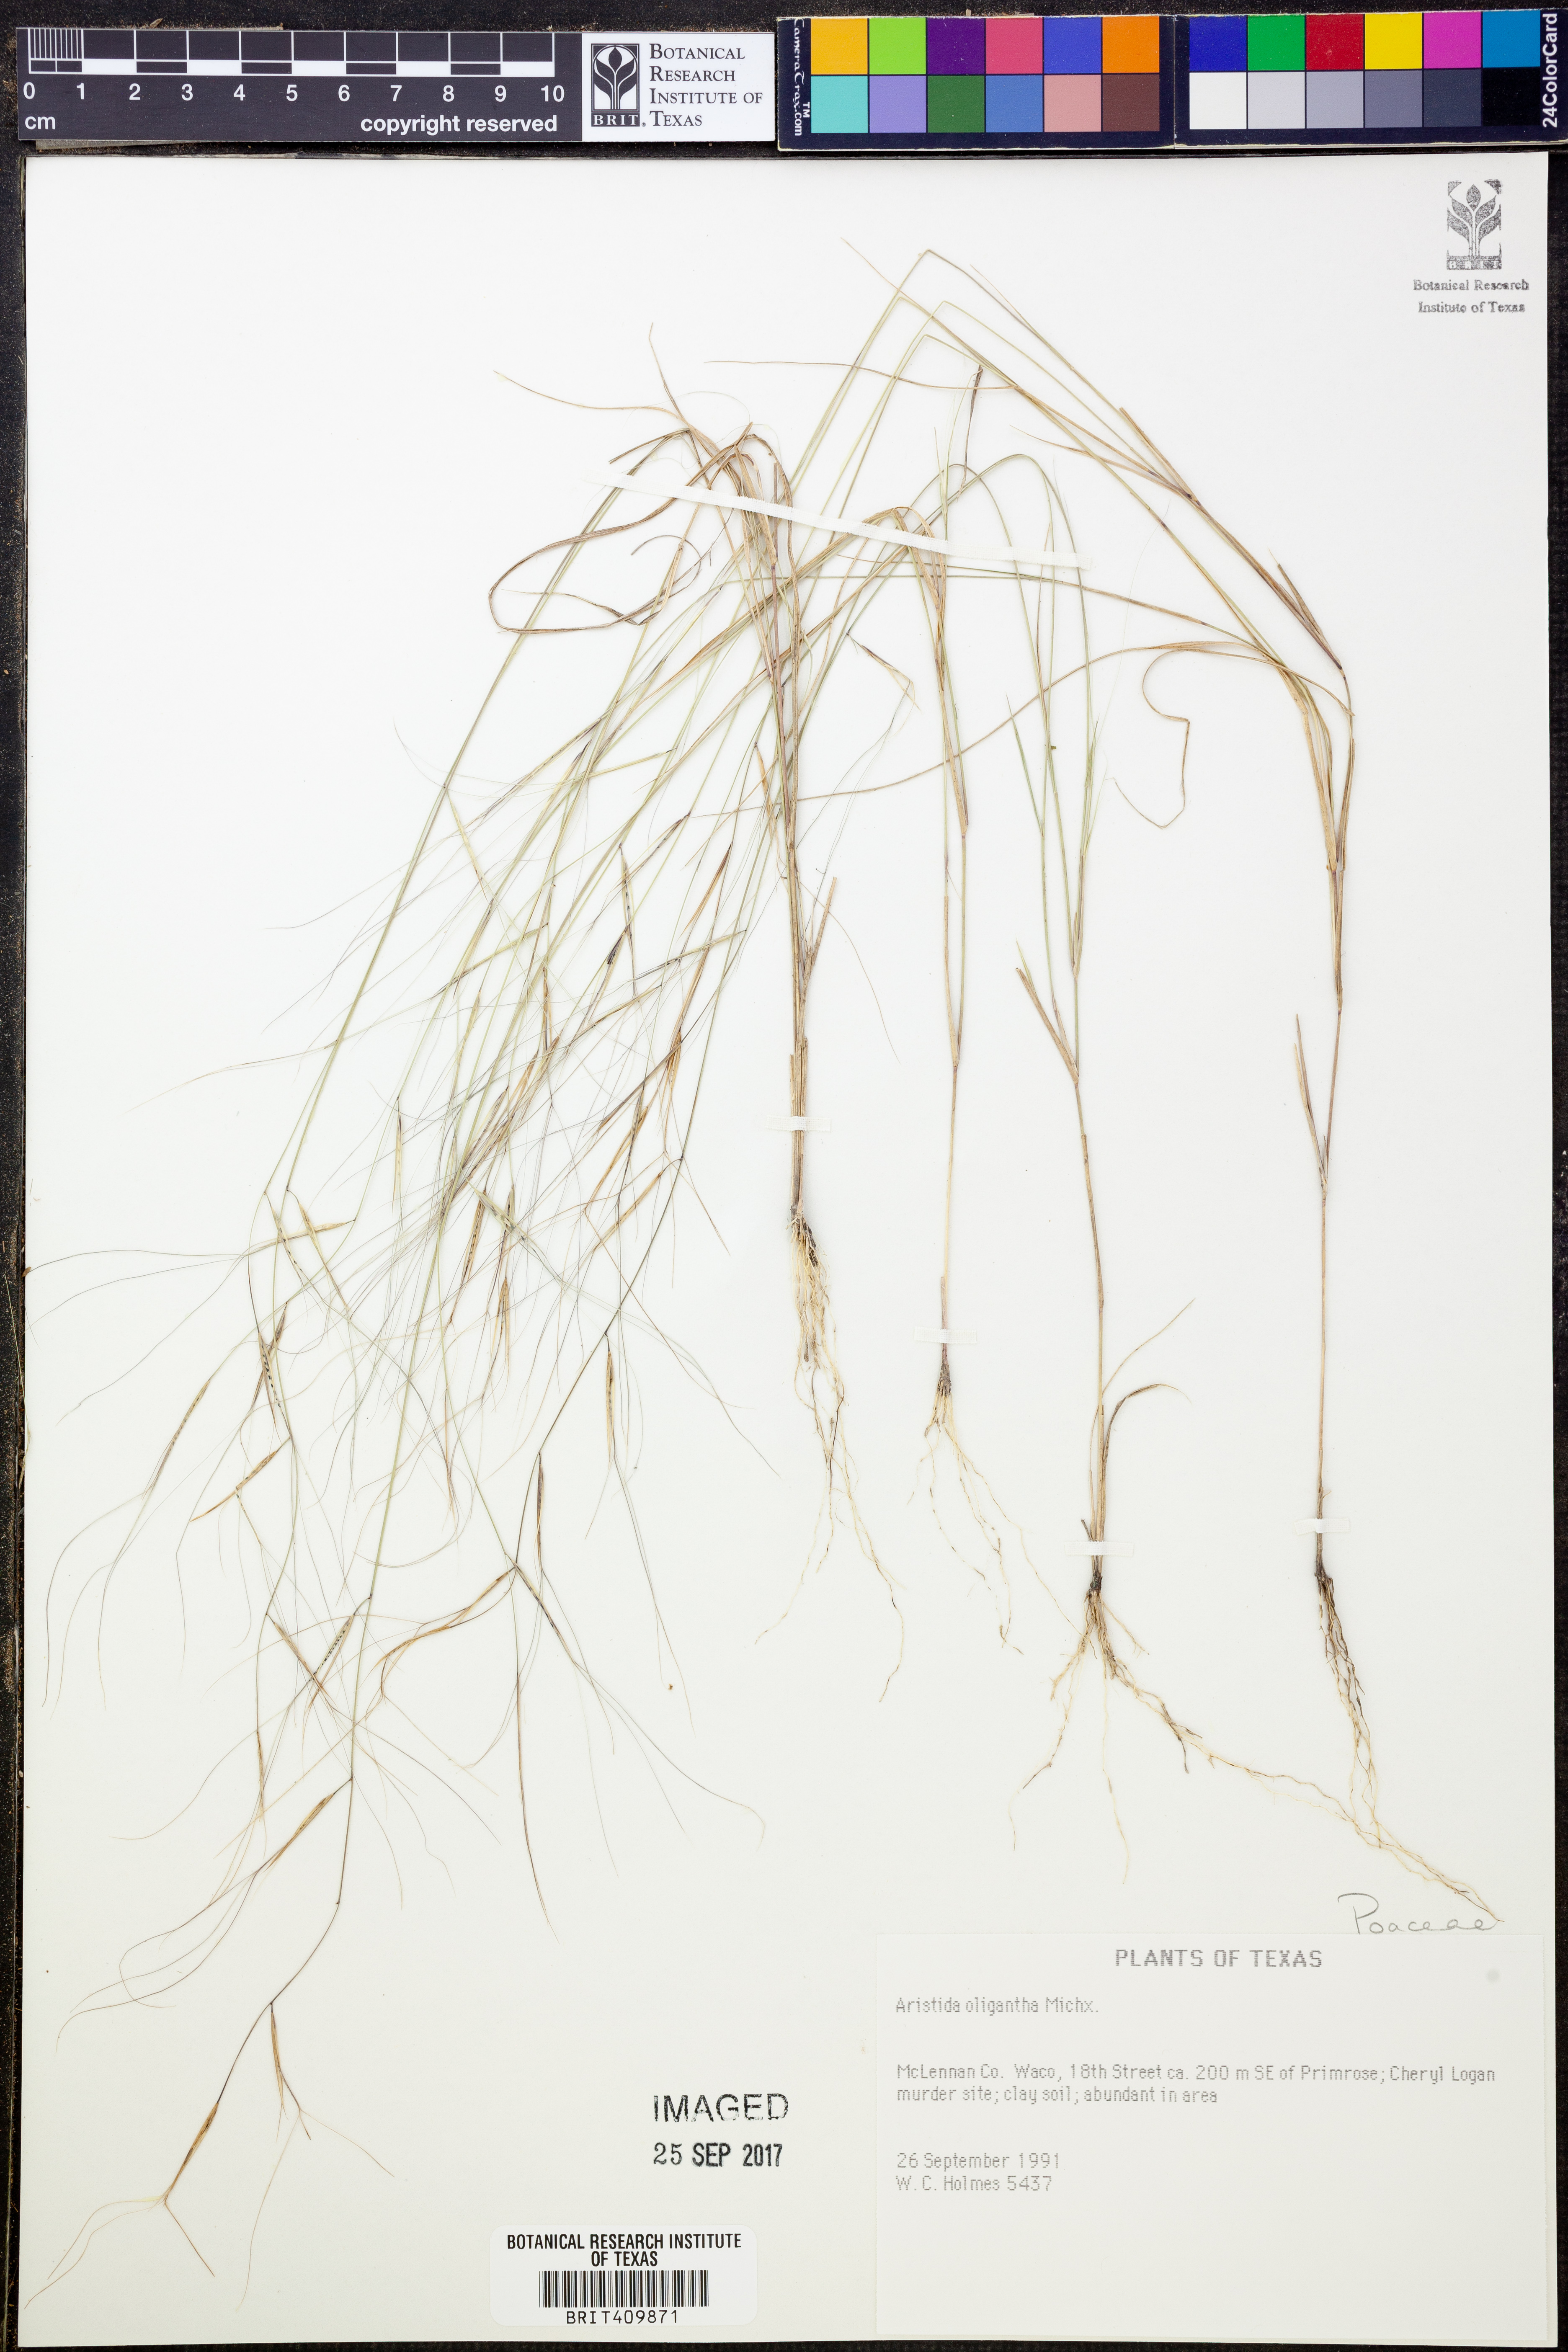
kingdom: Plantae
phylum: Tracheophyta
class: Liliopsida
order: Poales
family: Poaceae
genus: Aristida
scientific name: Aristida oligantha
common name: Few-flowered aristida
